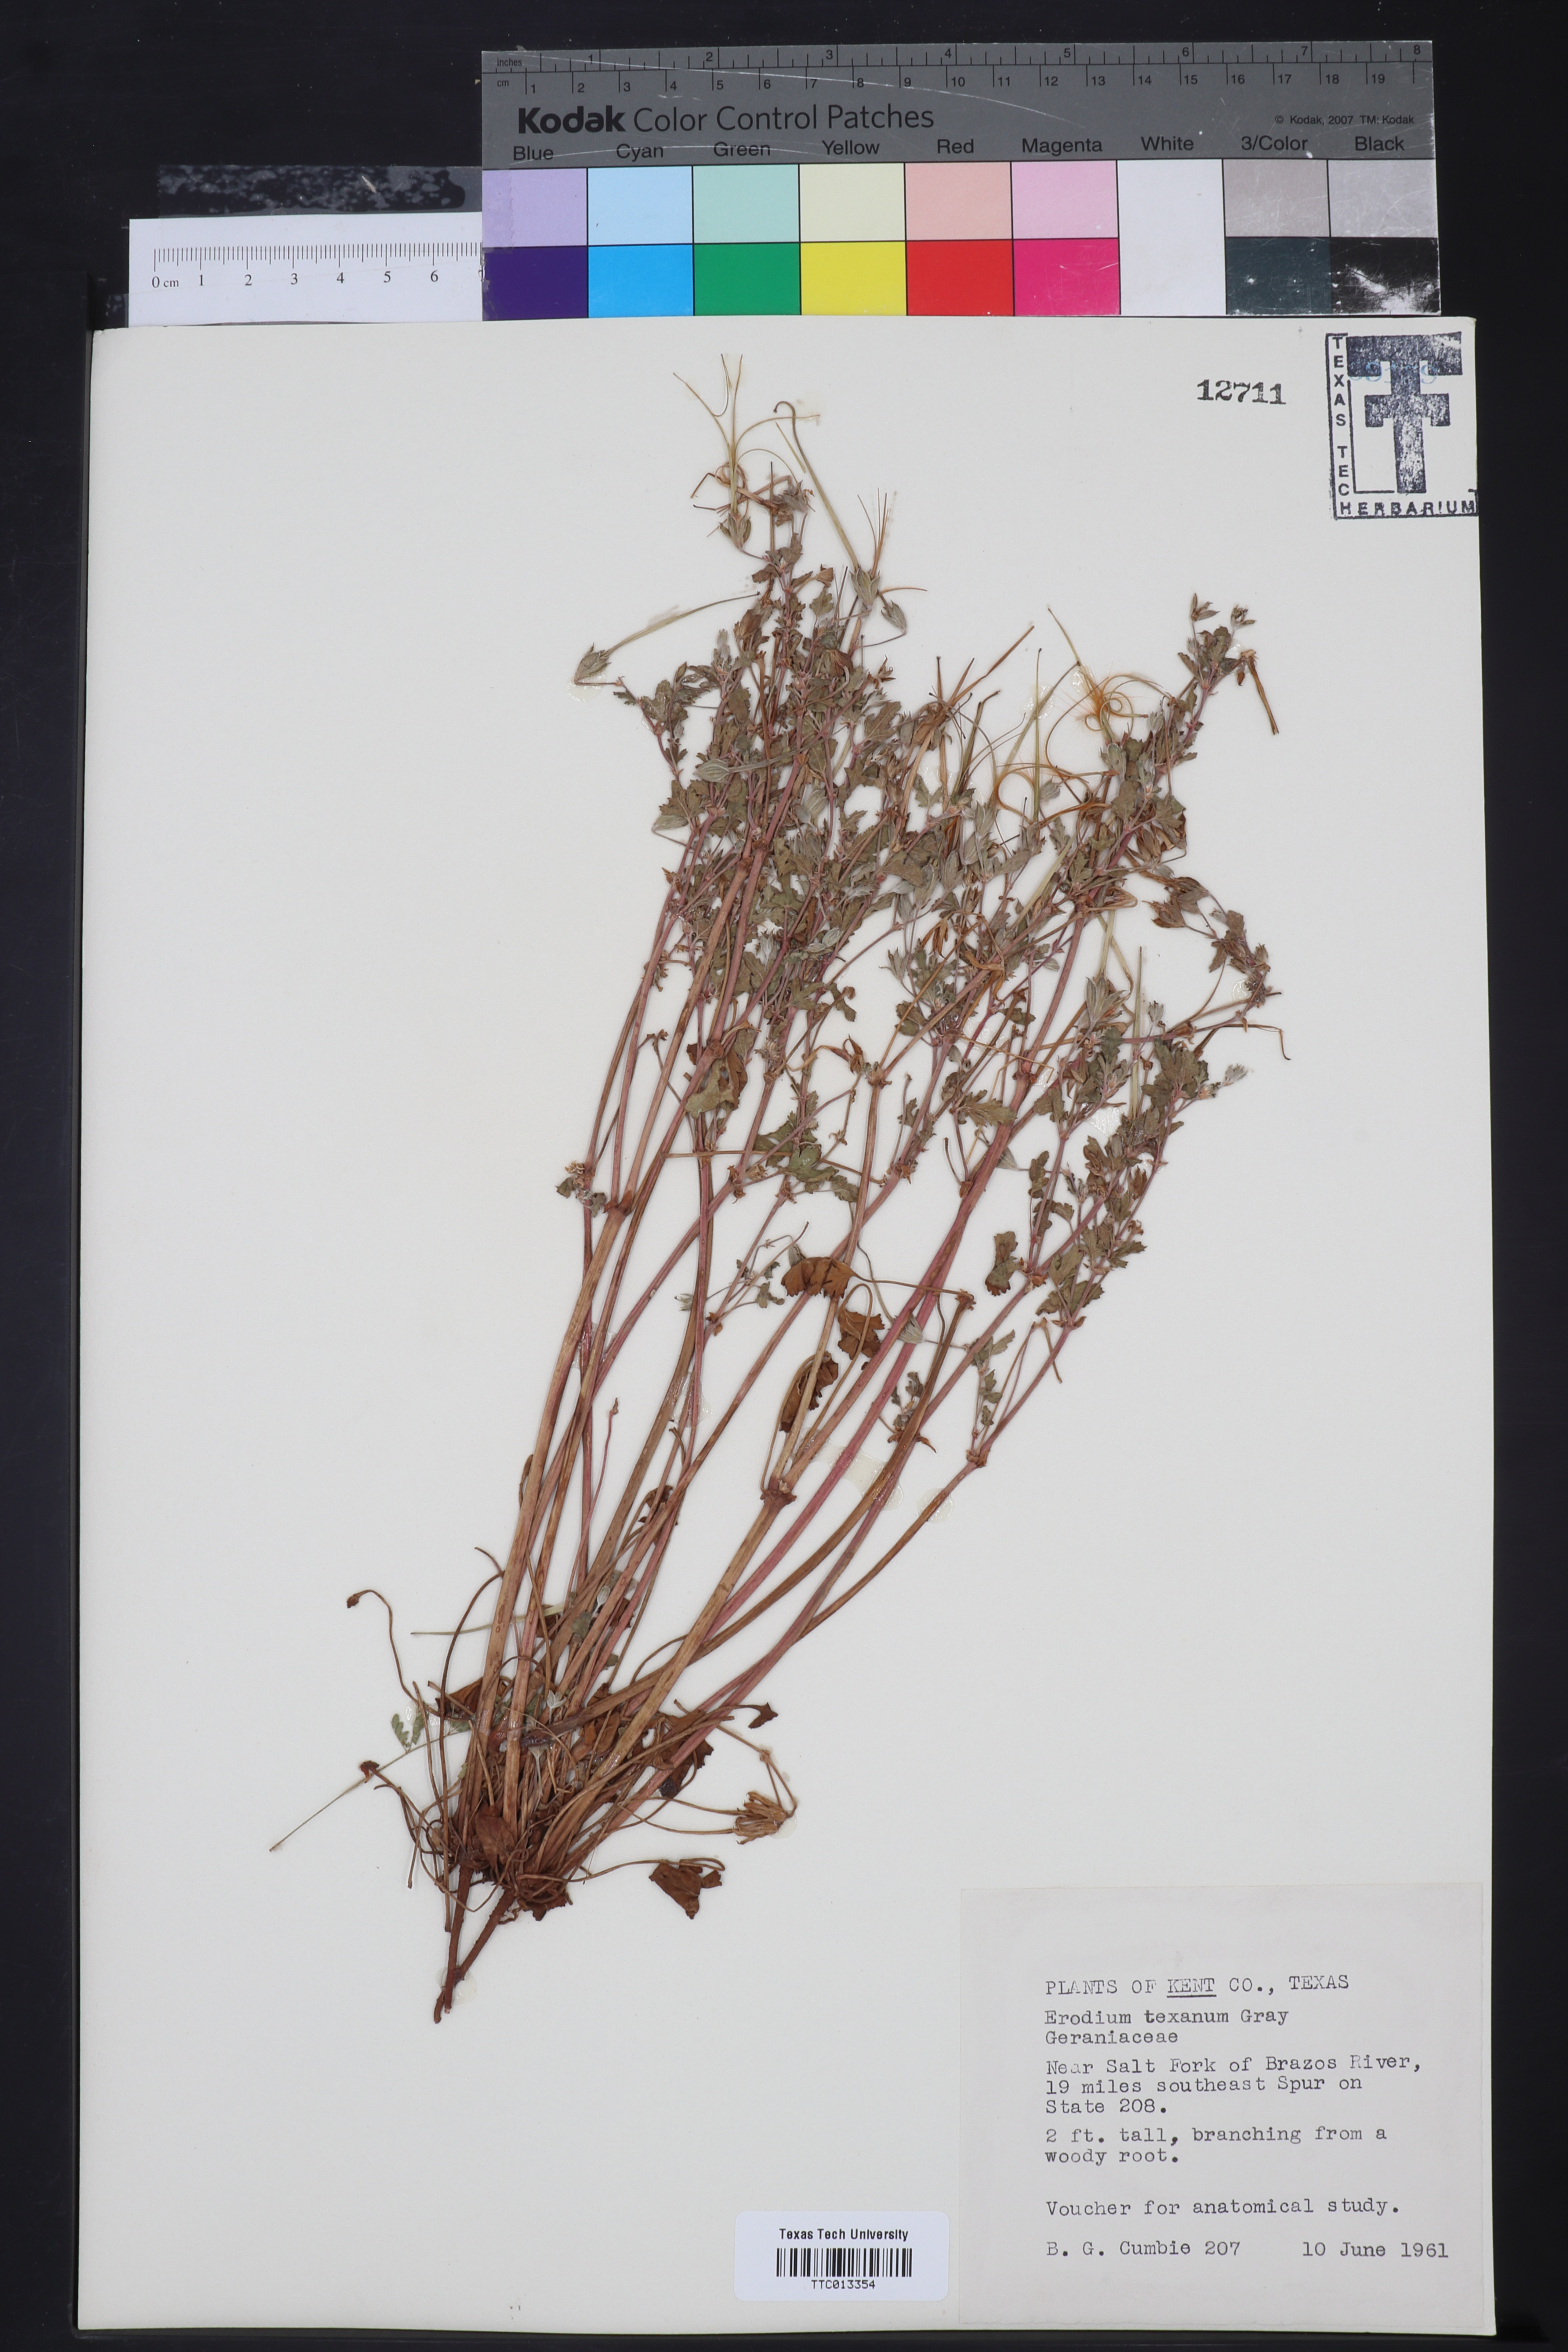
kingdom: Plantae
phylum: Tracheophyta
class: Magnoliopsida
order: Geraniales
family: Geraniaceae
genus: Erodium
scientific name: Erodium texanum
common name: Texas stork's-bill
